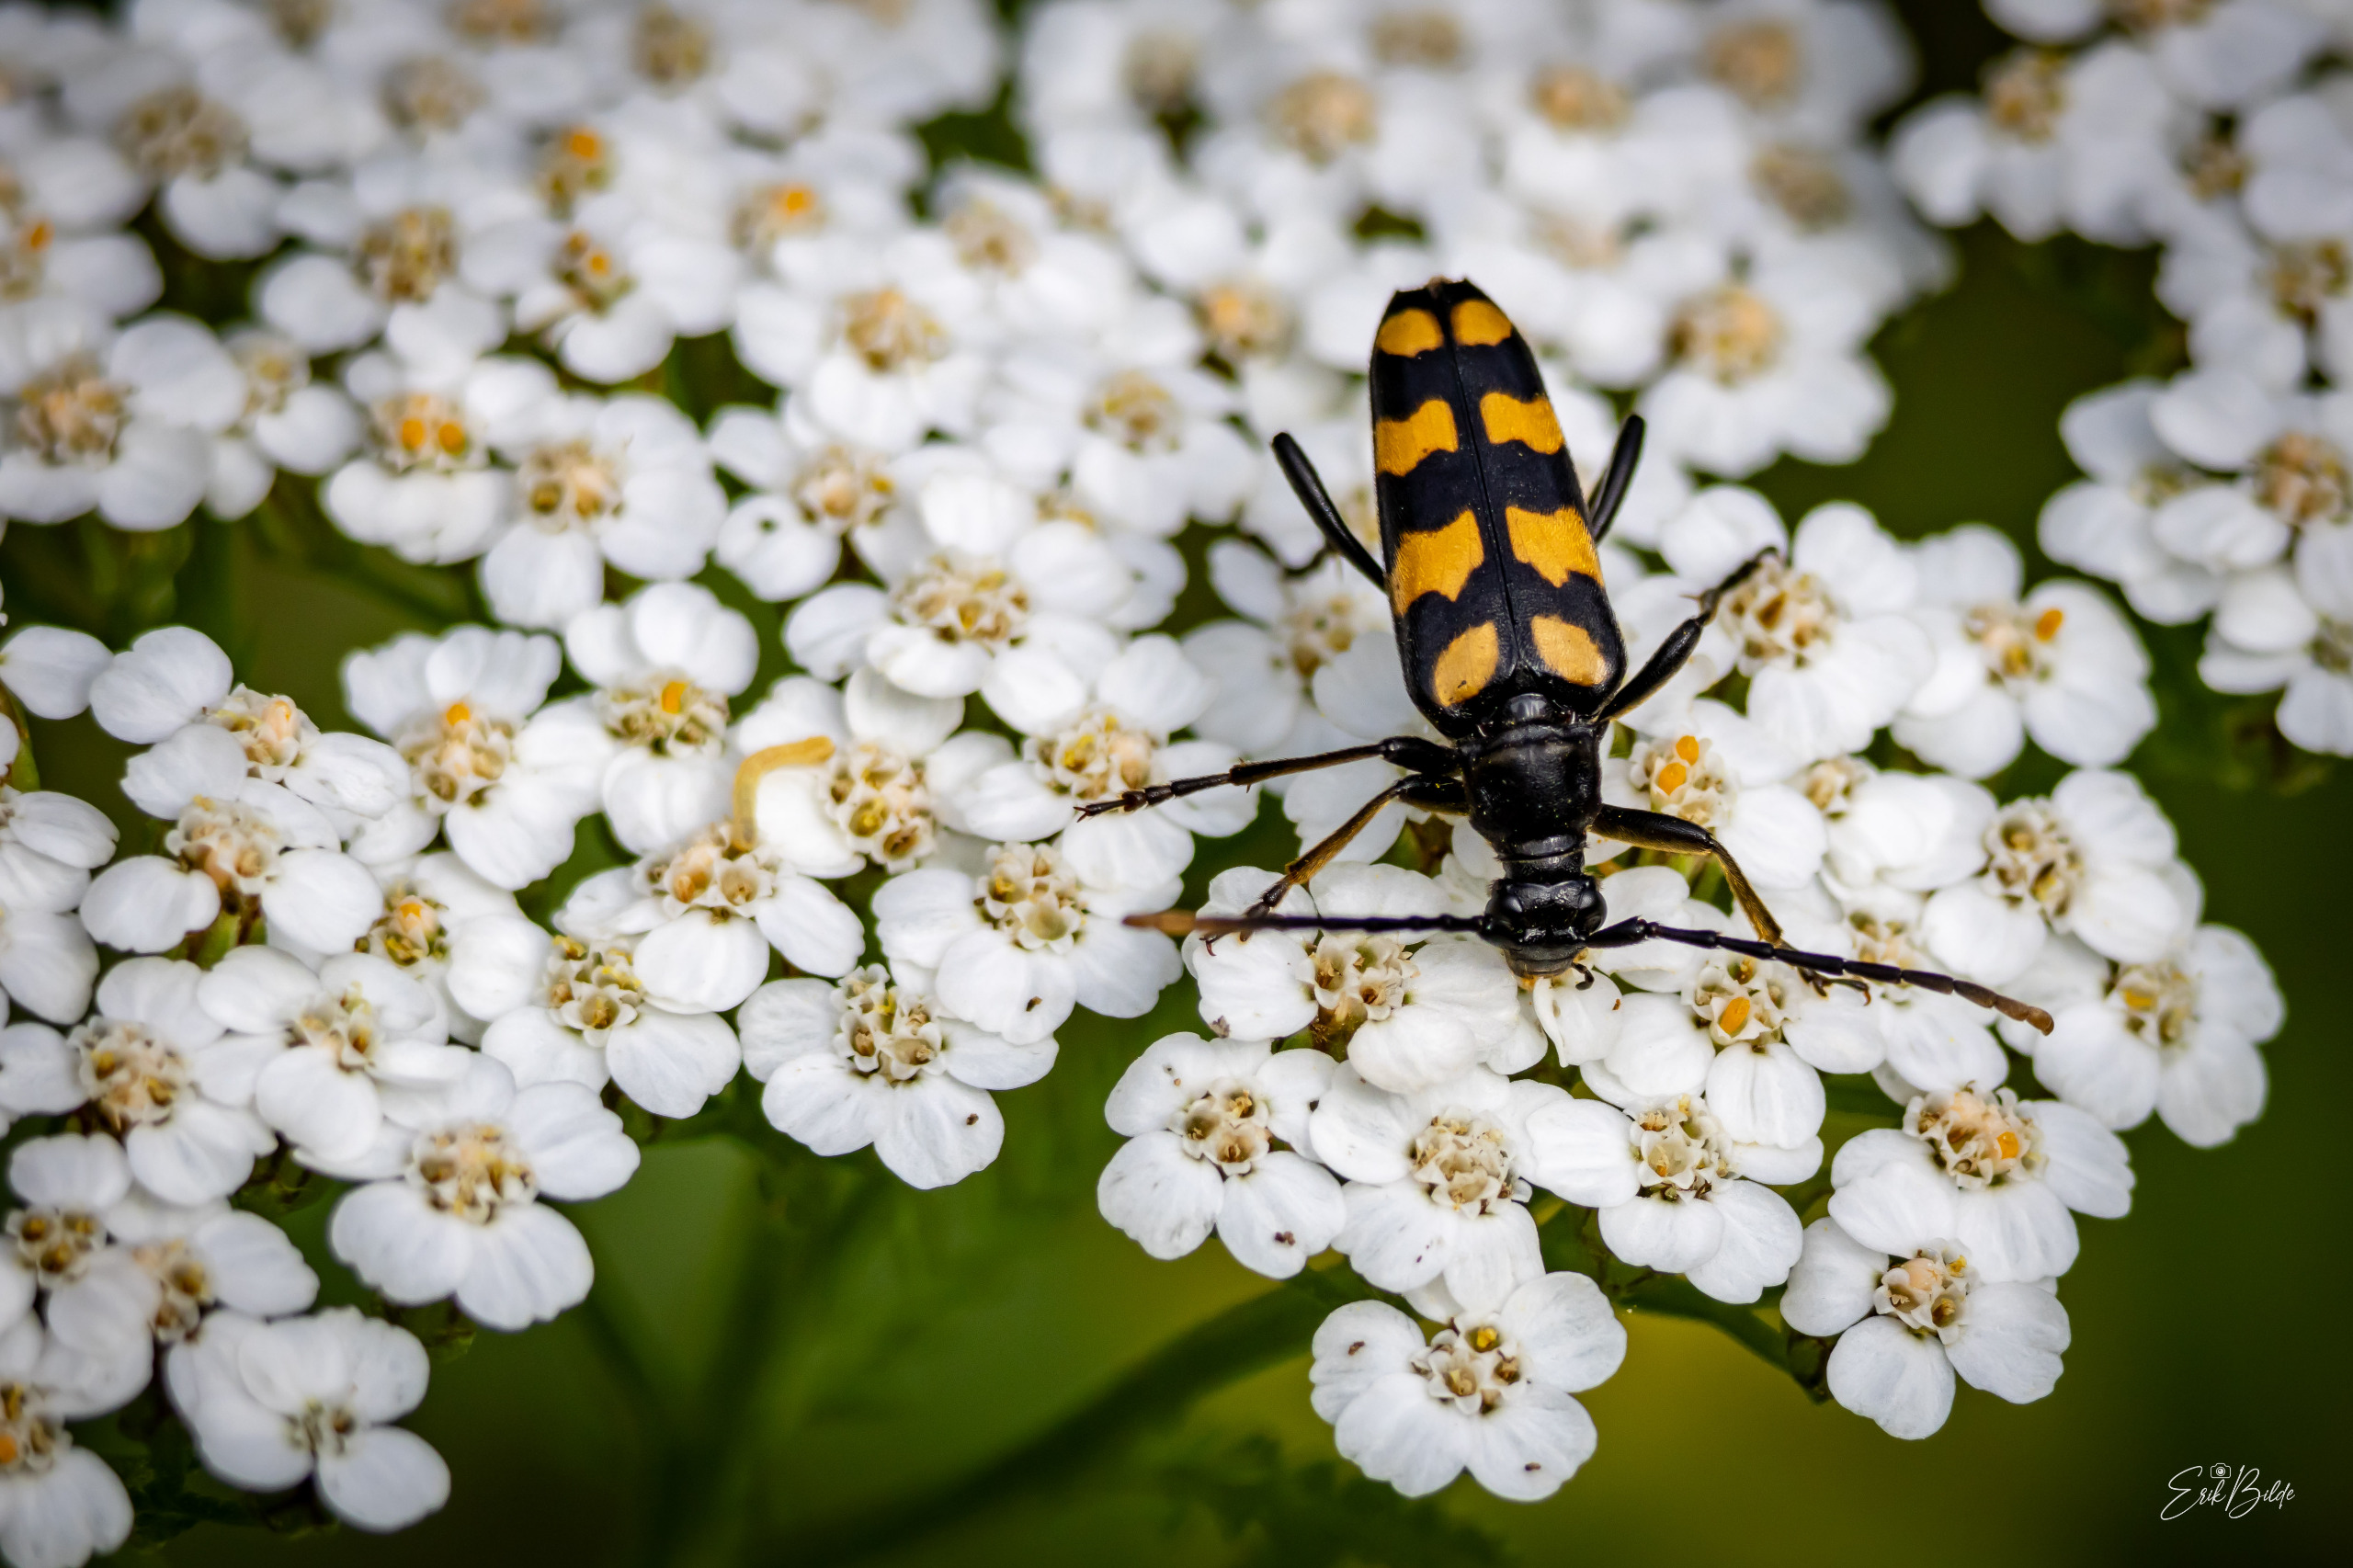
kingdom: Animalia
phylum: Arthropoda
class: Insecta
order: Coleoptera
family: Cerambycidae
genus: Leptura
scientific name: Leptura quadrifasciata
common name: Firebåndet blomsterbuk
